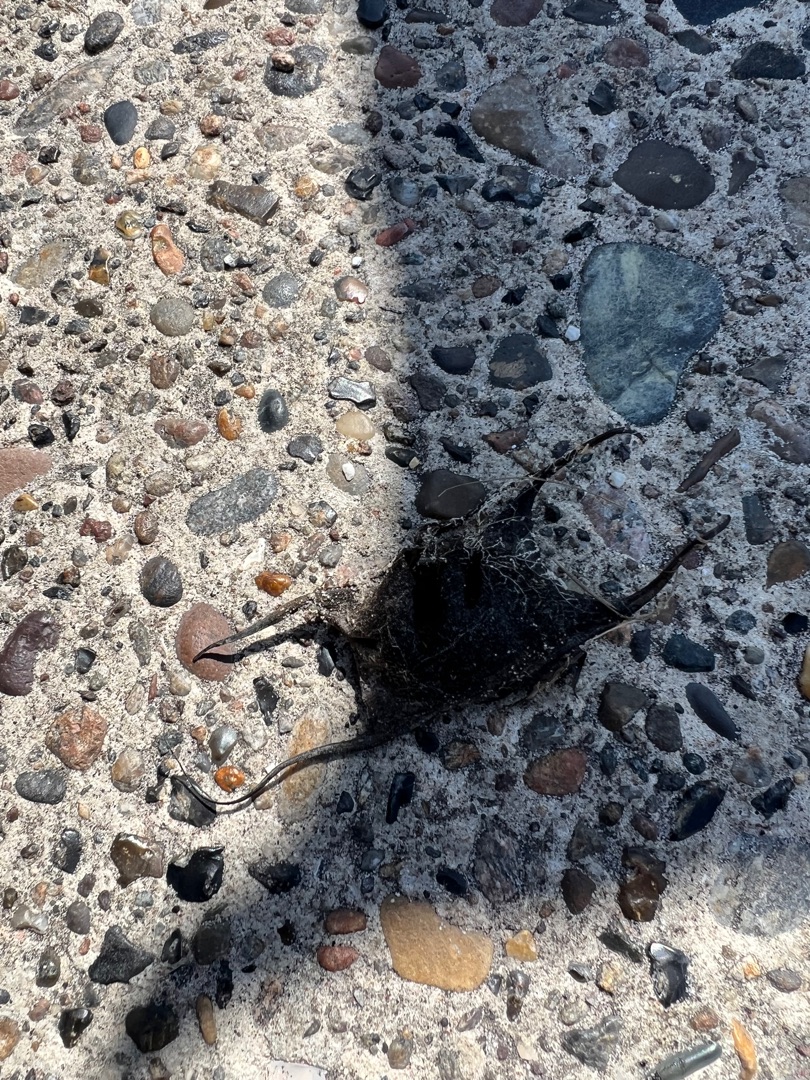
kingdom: Animalia
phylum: Chordata
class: Elasmobranchii
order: Rajiformes
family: Rajidae
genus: Amblyraja
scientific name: Amblyraja radiata
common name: Tærbe
